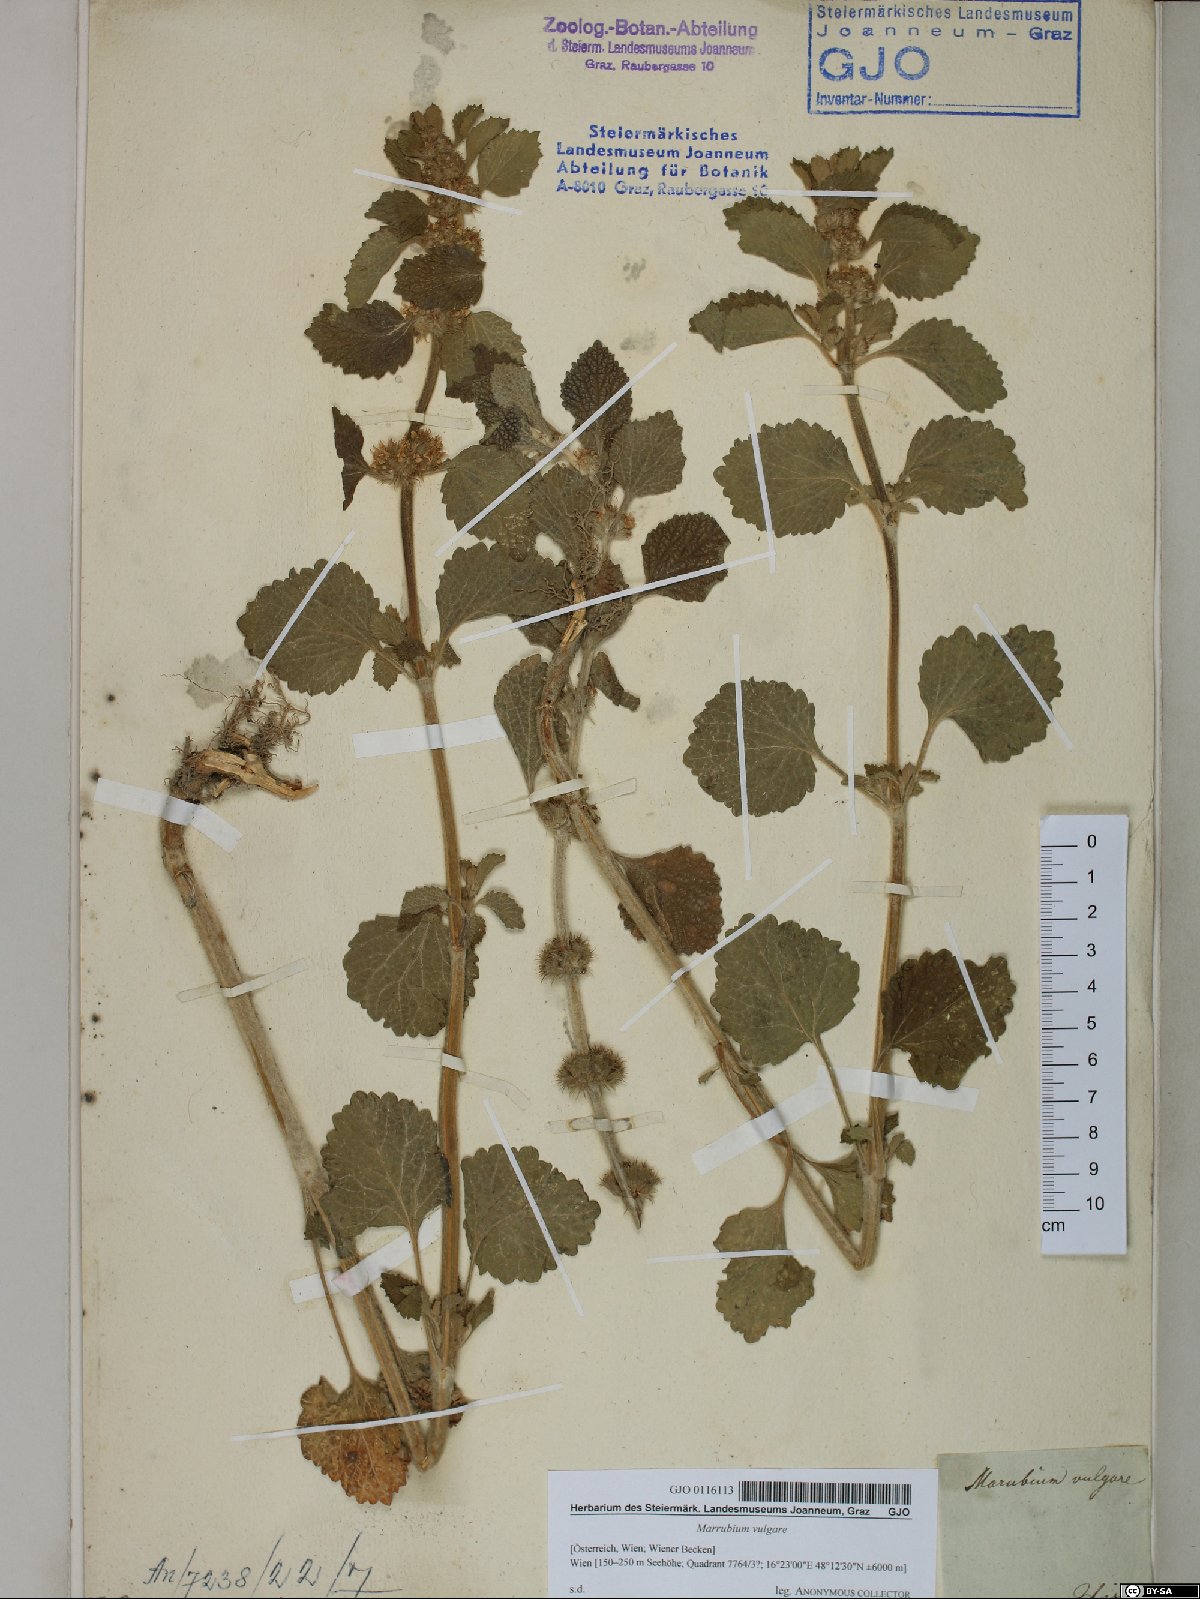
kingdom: Plantae
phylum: Tracheophyta
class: Magnoliopsida
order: Lamiales
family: Lamiaceae
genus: Marrubium
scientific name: Marrubium vulgare
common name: Horehound
